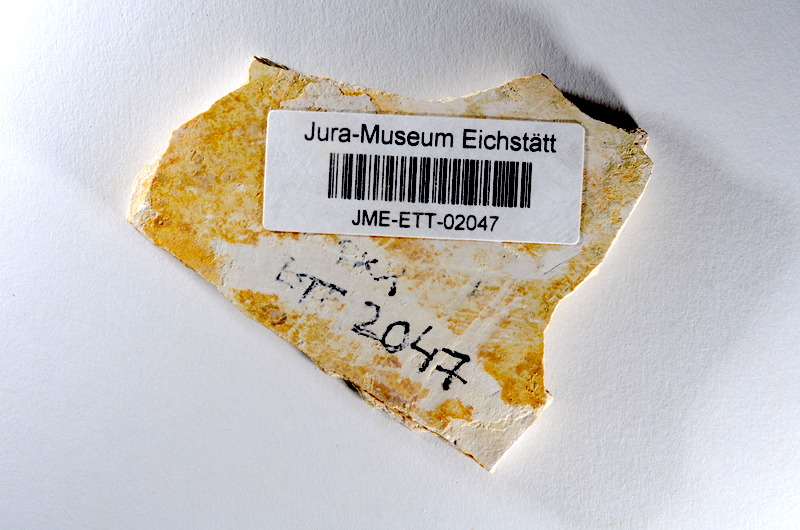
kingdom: Animalia
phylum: Chordata
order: Salmoniformes
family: Orthogonikleithridae
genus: Orthogonikleithrus
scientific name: Orthogonikleithrus hoelli
